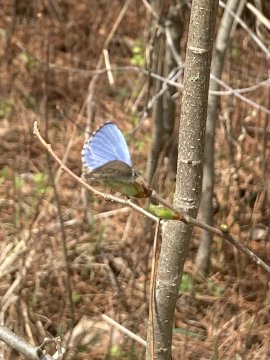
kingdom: Animalia
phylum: Arthropoda
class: Insecta
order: Lepidoptera
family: Lycaenidae
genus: Celastrina
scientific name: Celastrina lucia
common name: Northern Spring Azure
